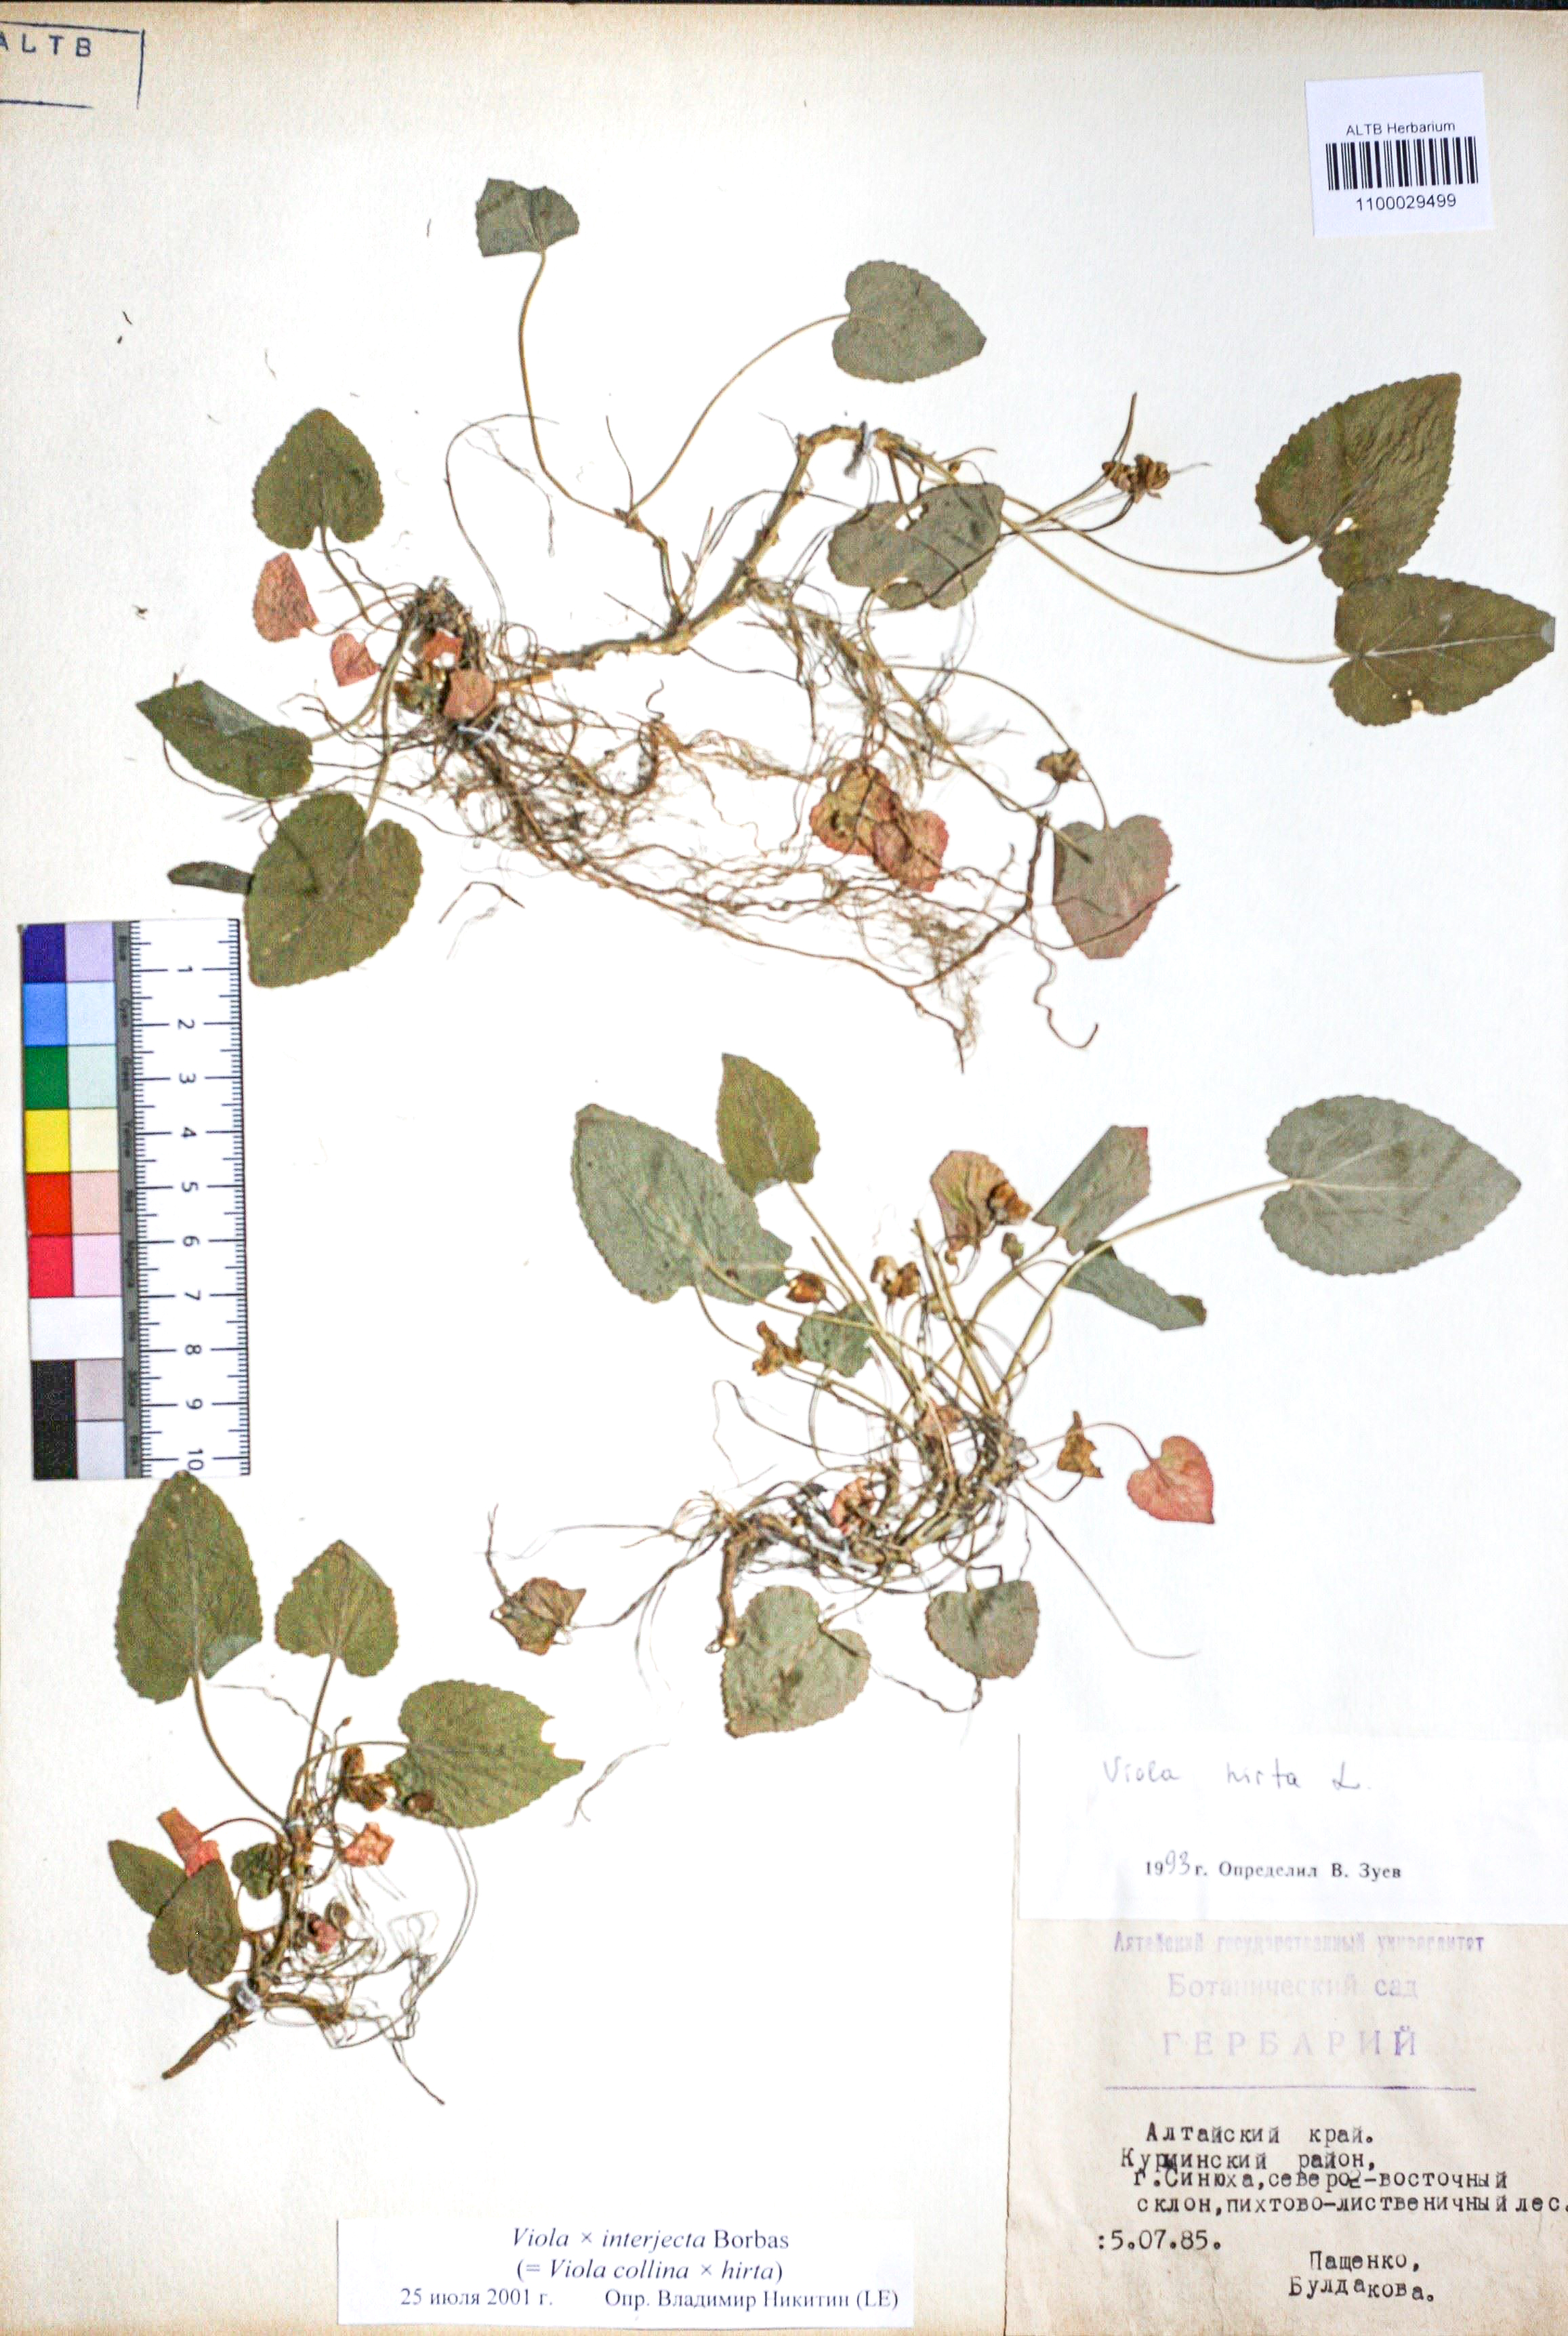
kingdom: Plantae
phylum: Tracheophyta
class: Magnoliopsida
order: Malpighiales
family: Violaceae
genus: Viola
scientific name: Viola interjecta
